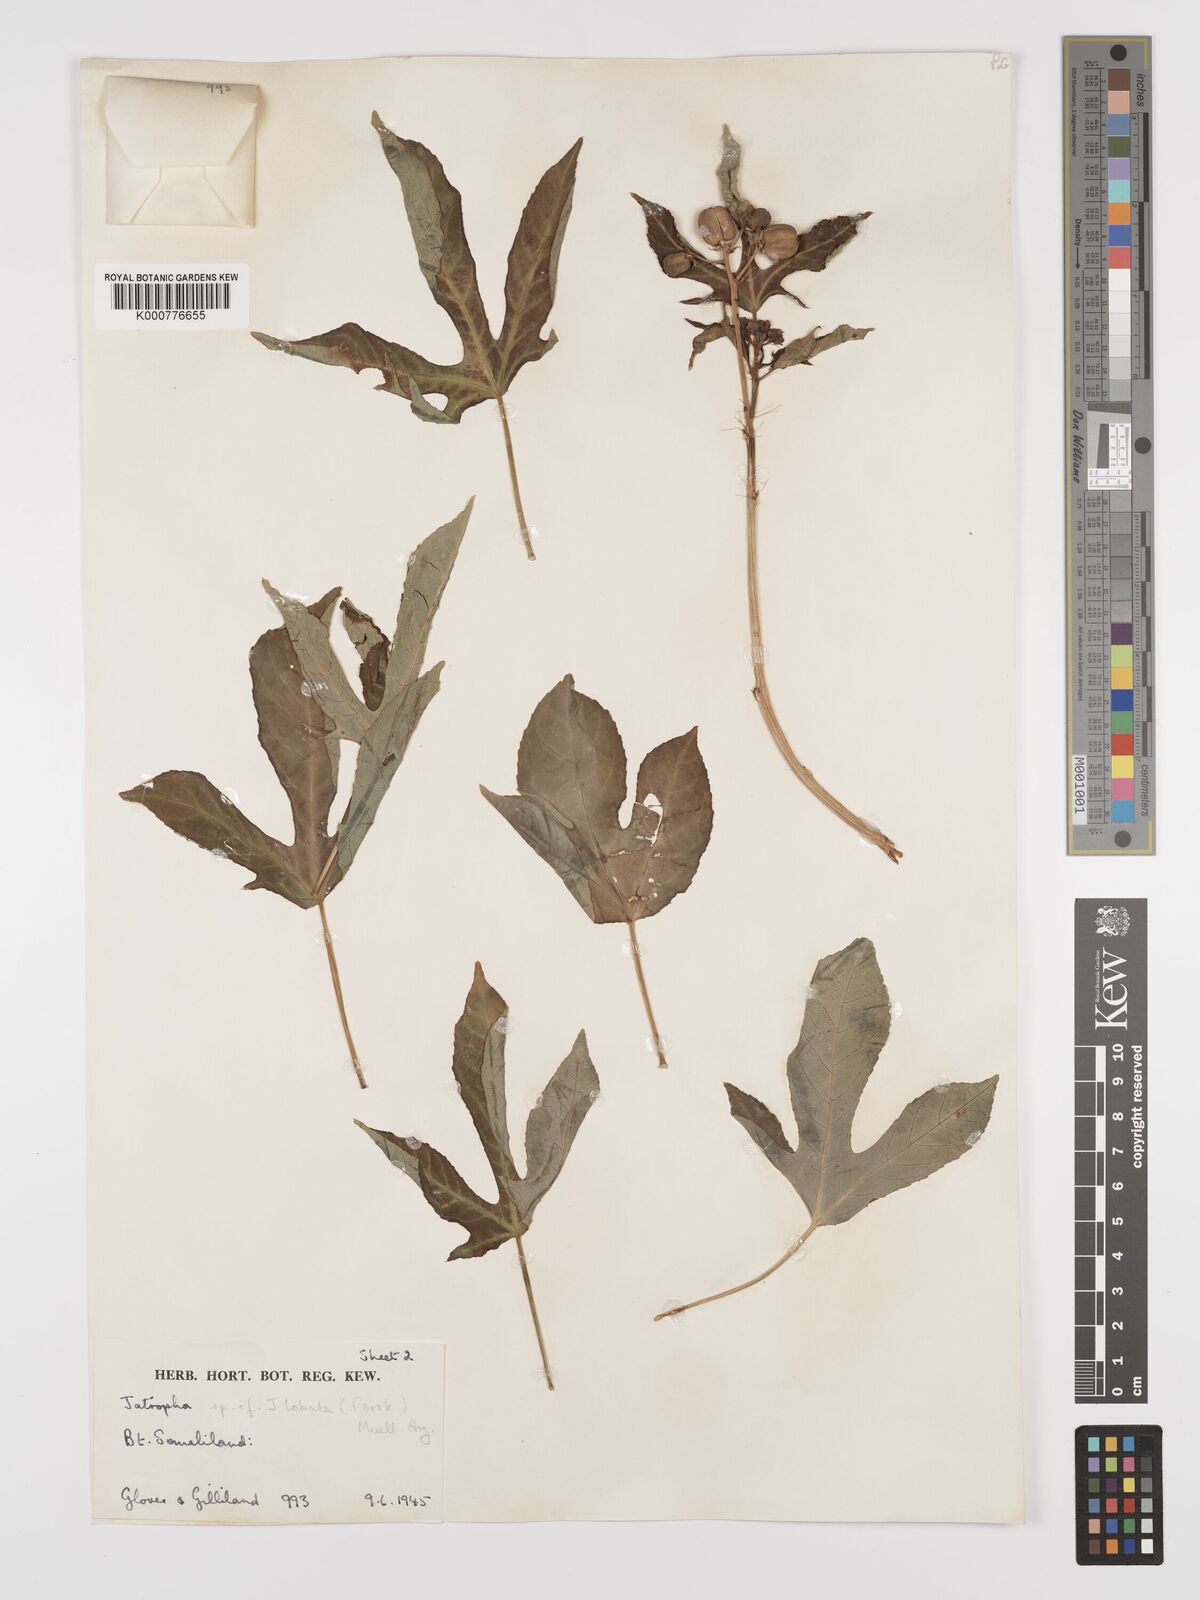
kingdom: Plantae
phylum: Tracheophyta
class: Magnoliopsida
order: Malpighiales
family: Euphorbiaceae
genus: Jatropha
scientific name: Jatropha trifida
